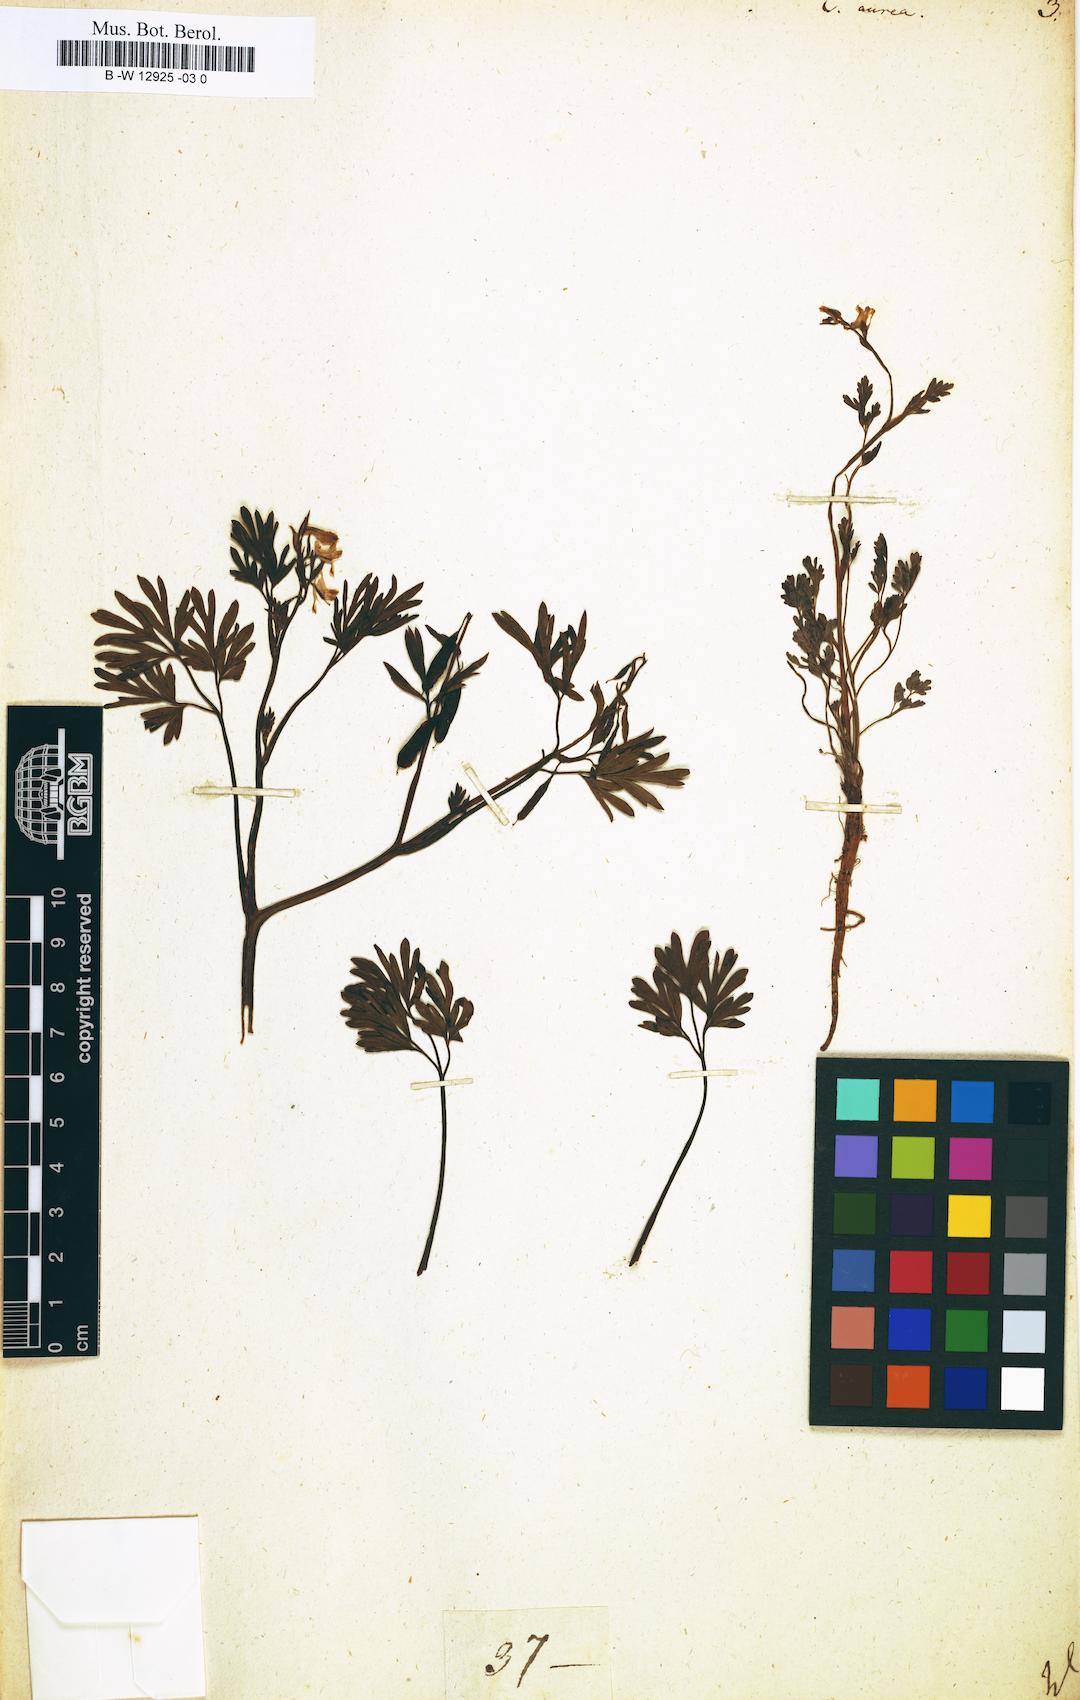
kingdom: Plantae
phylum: Tracheophyta
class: Magnoliopsida
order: Ranunculales
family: Papaveraceae
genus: Corydalis
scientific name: Corydalis aurea
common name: Golden corydalis
